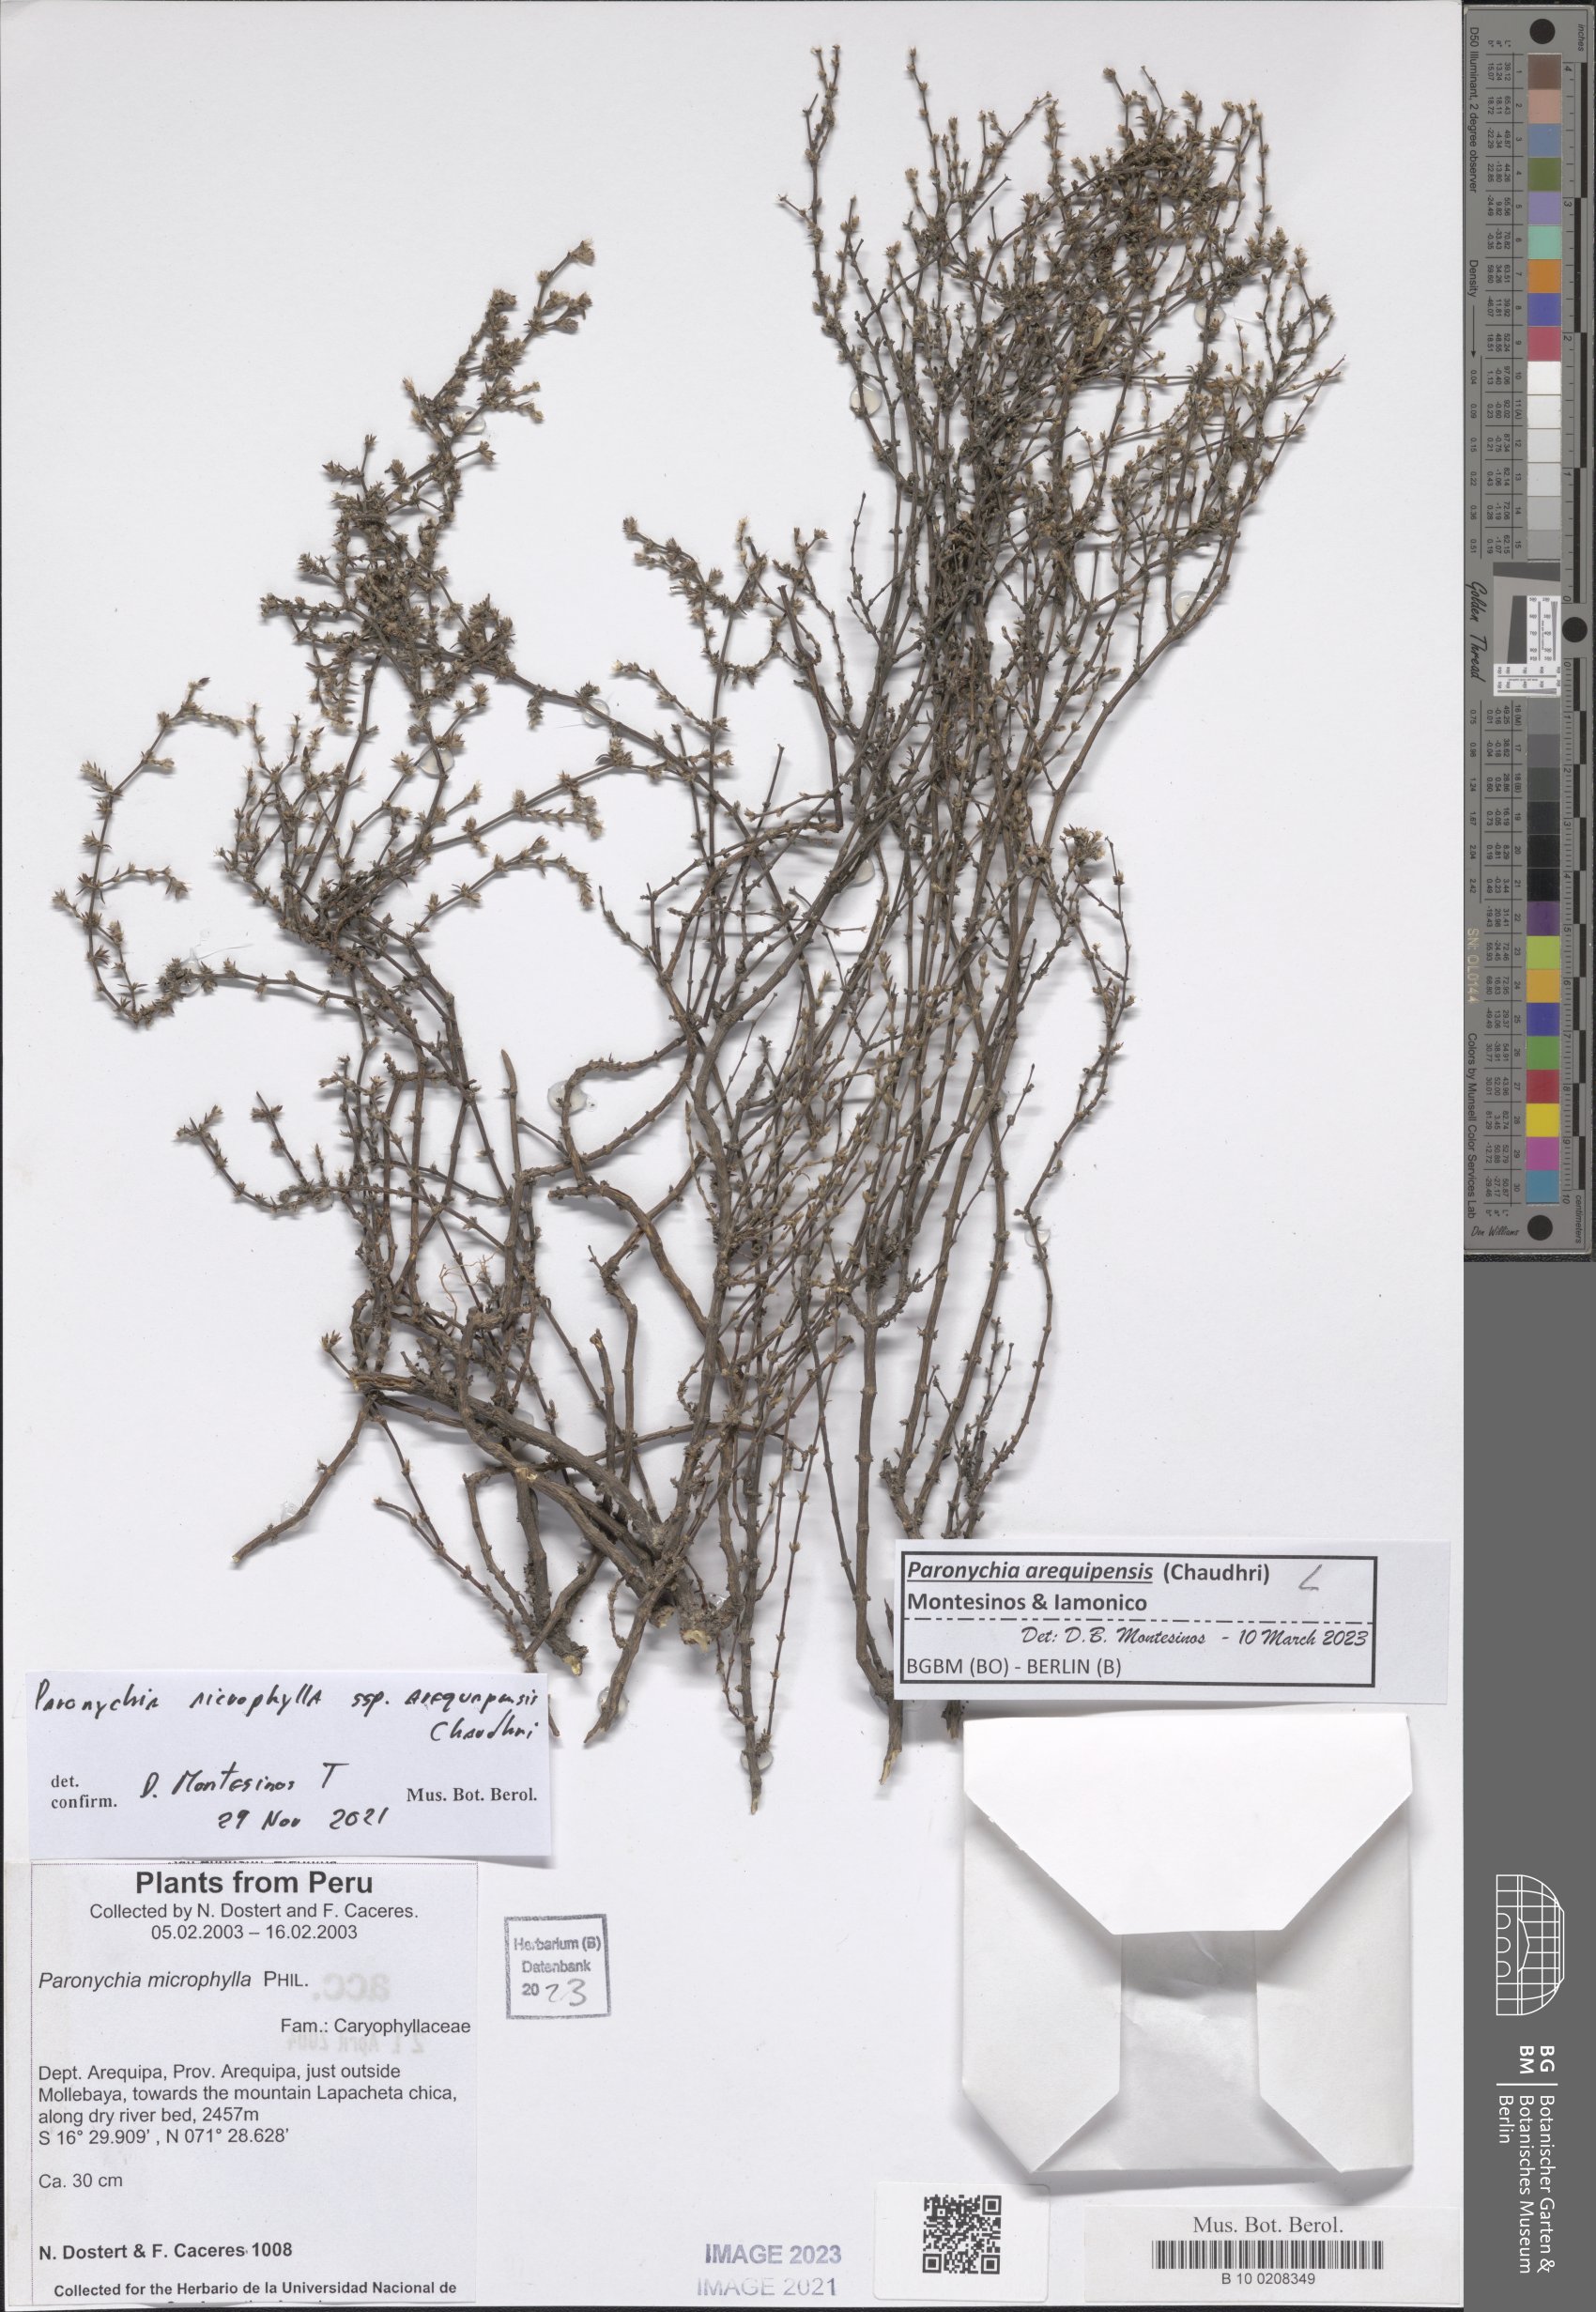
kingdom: Plantae
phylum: Tracheophyta
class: Magnoliopsida
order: Caryophyllales
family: Caryophyllaceae
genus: Paronychia
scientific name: Paronychia
